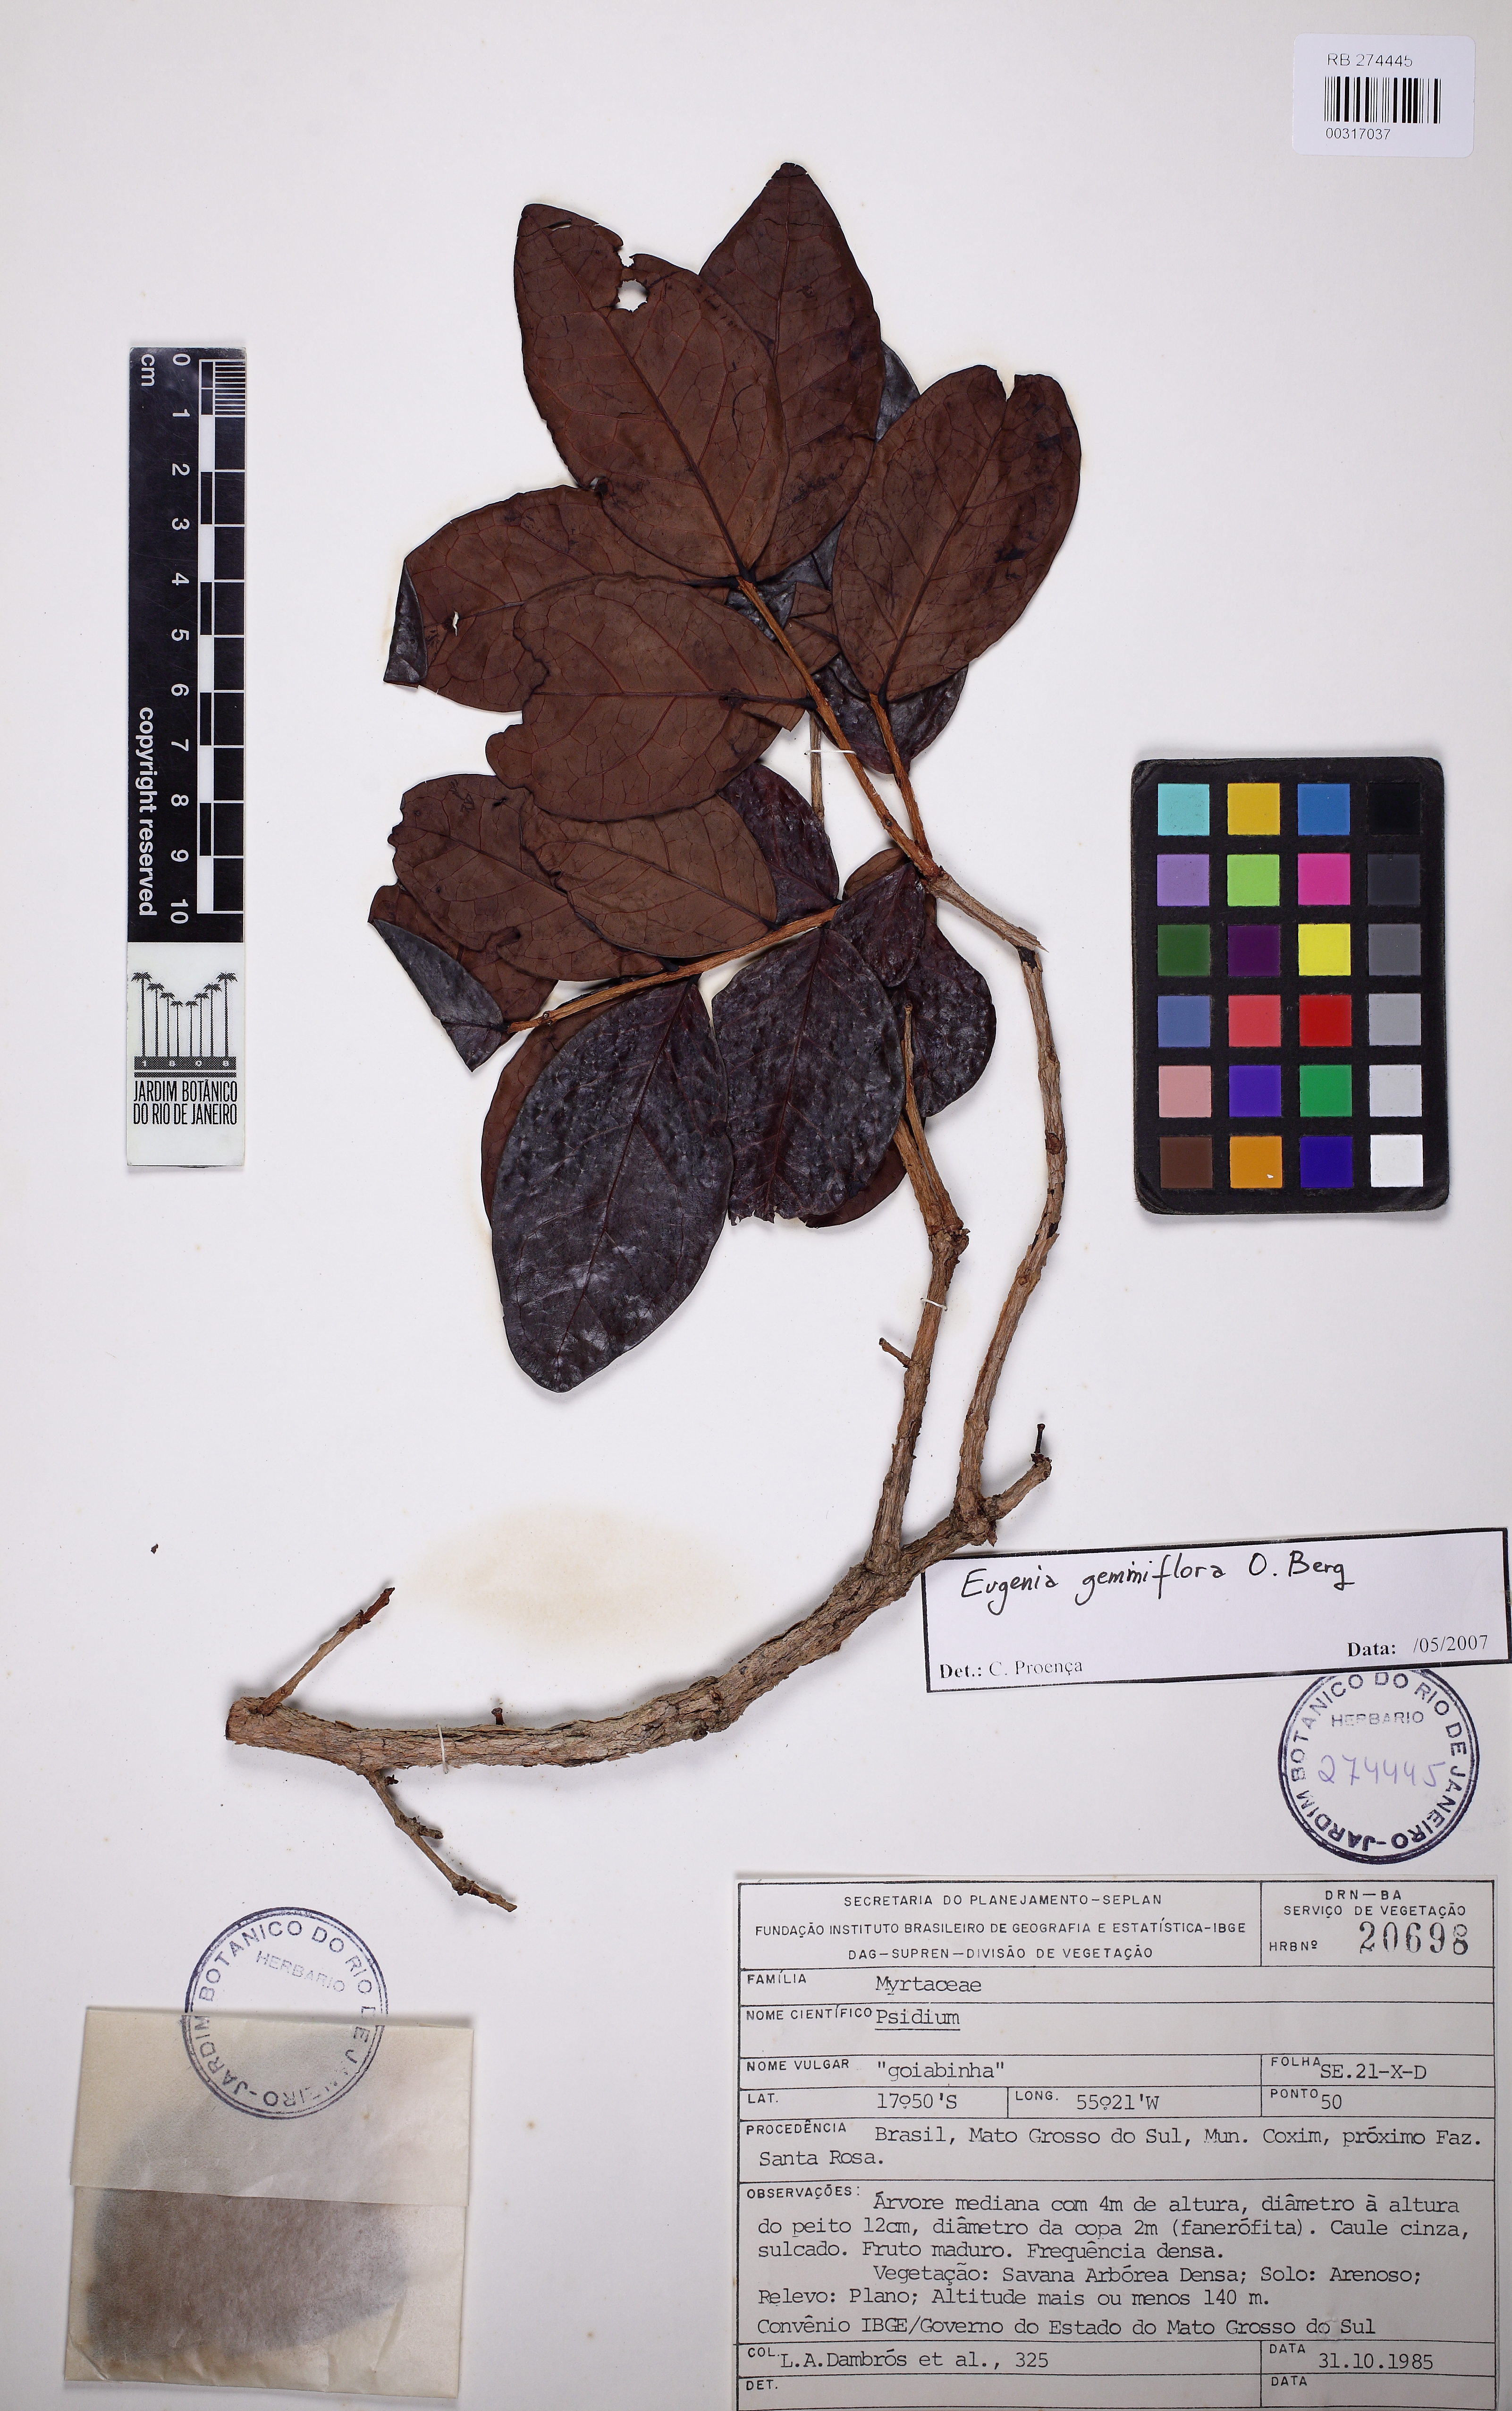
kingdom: Plantae
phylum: Tracheophyta
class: Magnoliopsida
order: Myrtales
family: Myrtaceae
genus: Eugenia
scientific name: Eugenia gemmiflora
